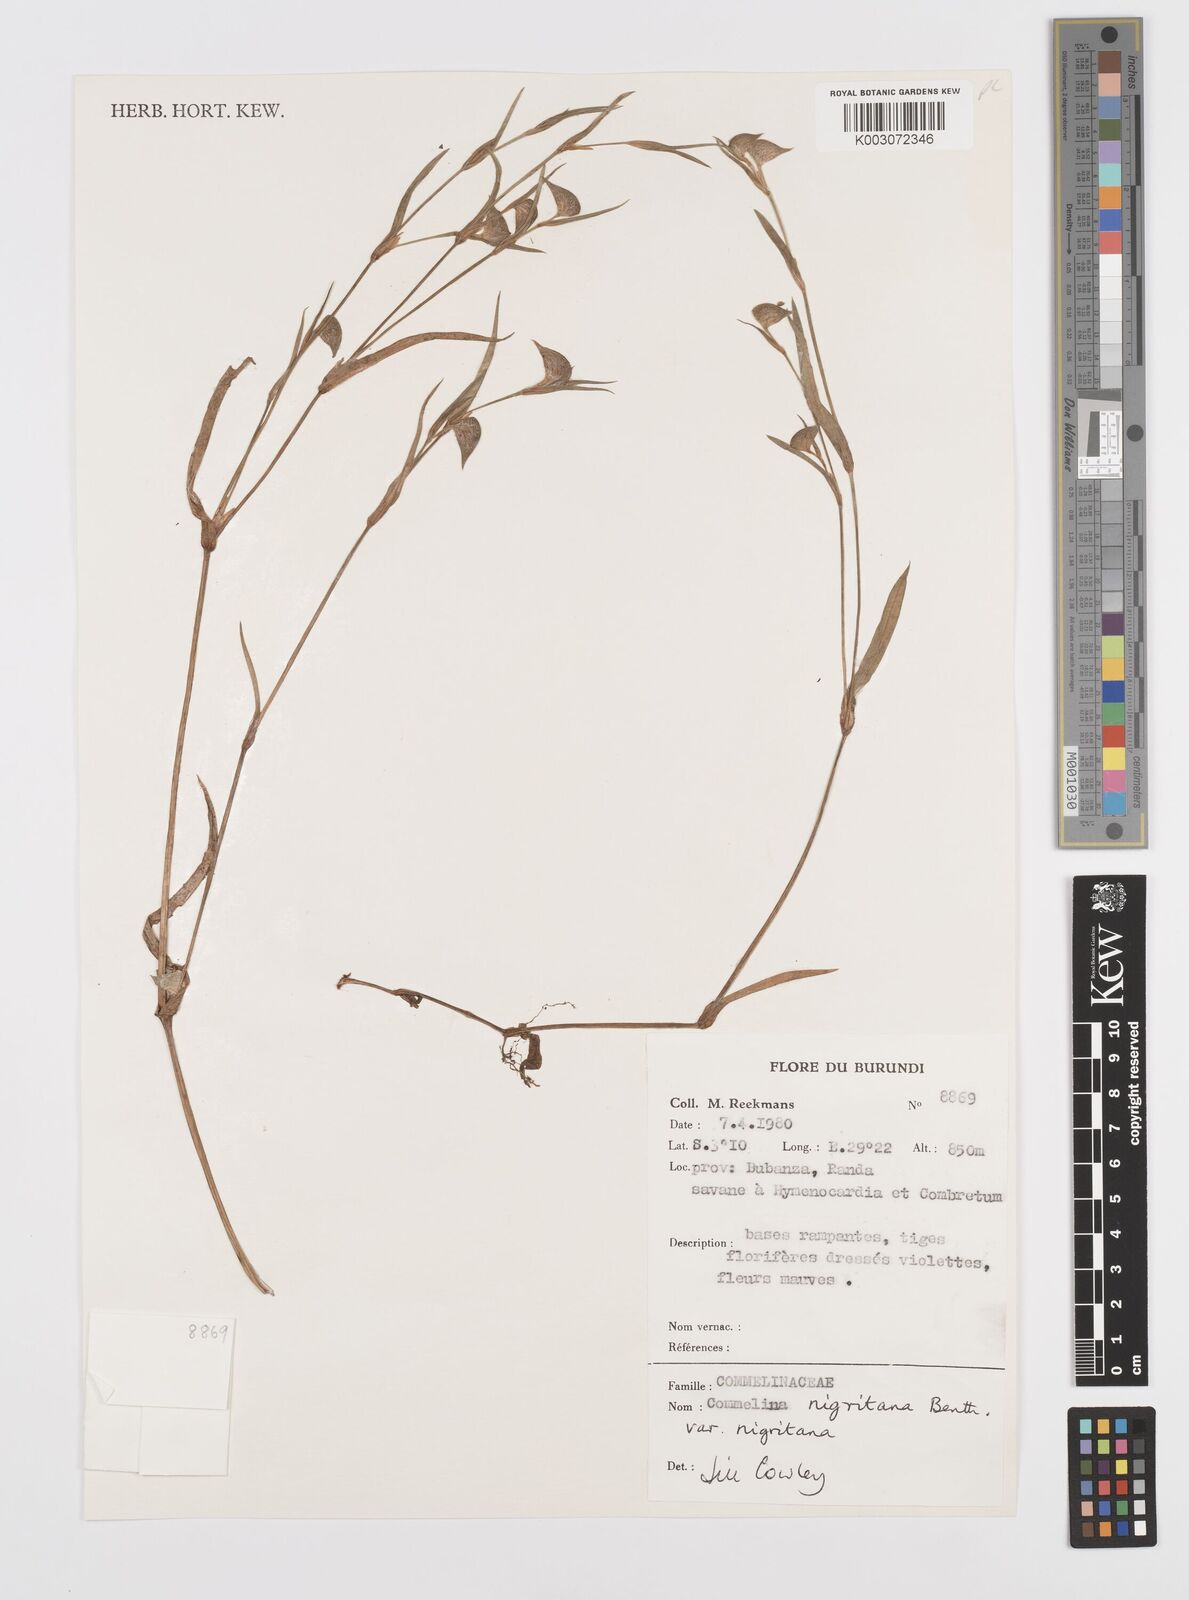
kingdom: Plantae
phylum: Tracheophyta
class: Liliopsida
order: Commelinales
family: Commelinaceae
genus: Commelina
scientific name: Commelina
